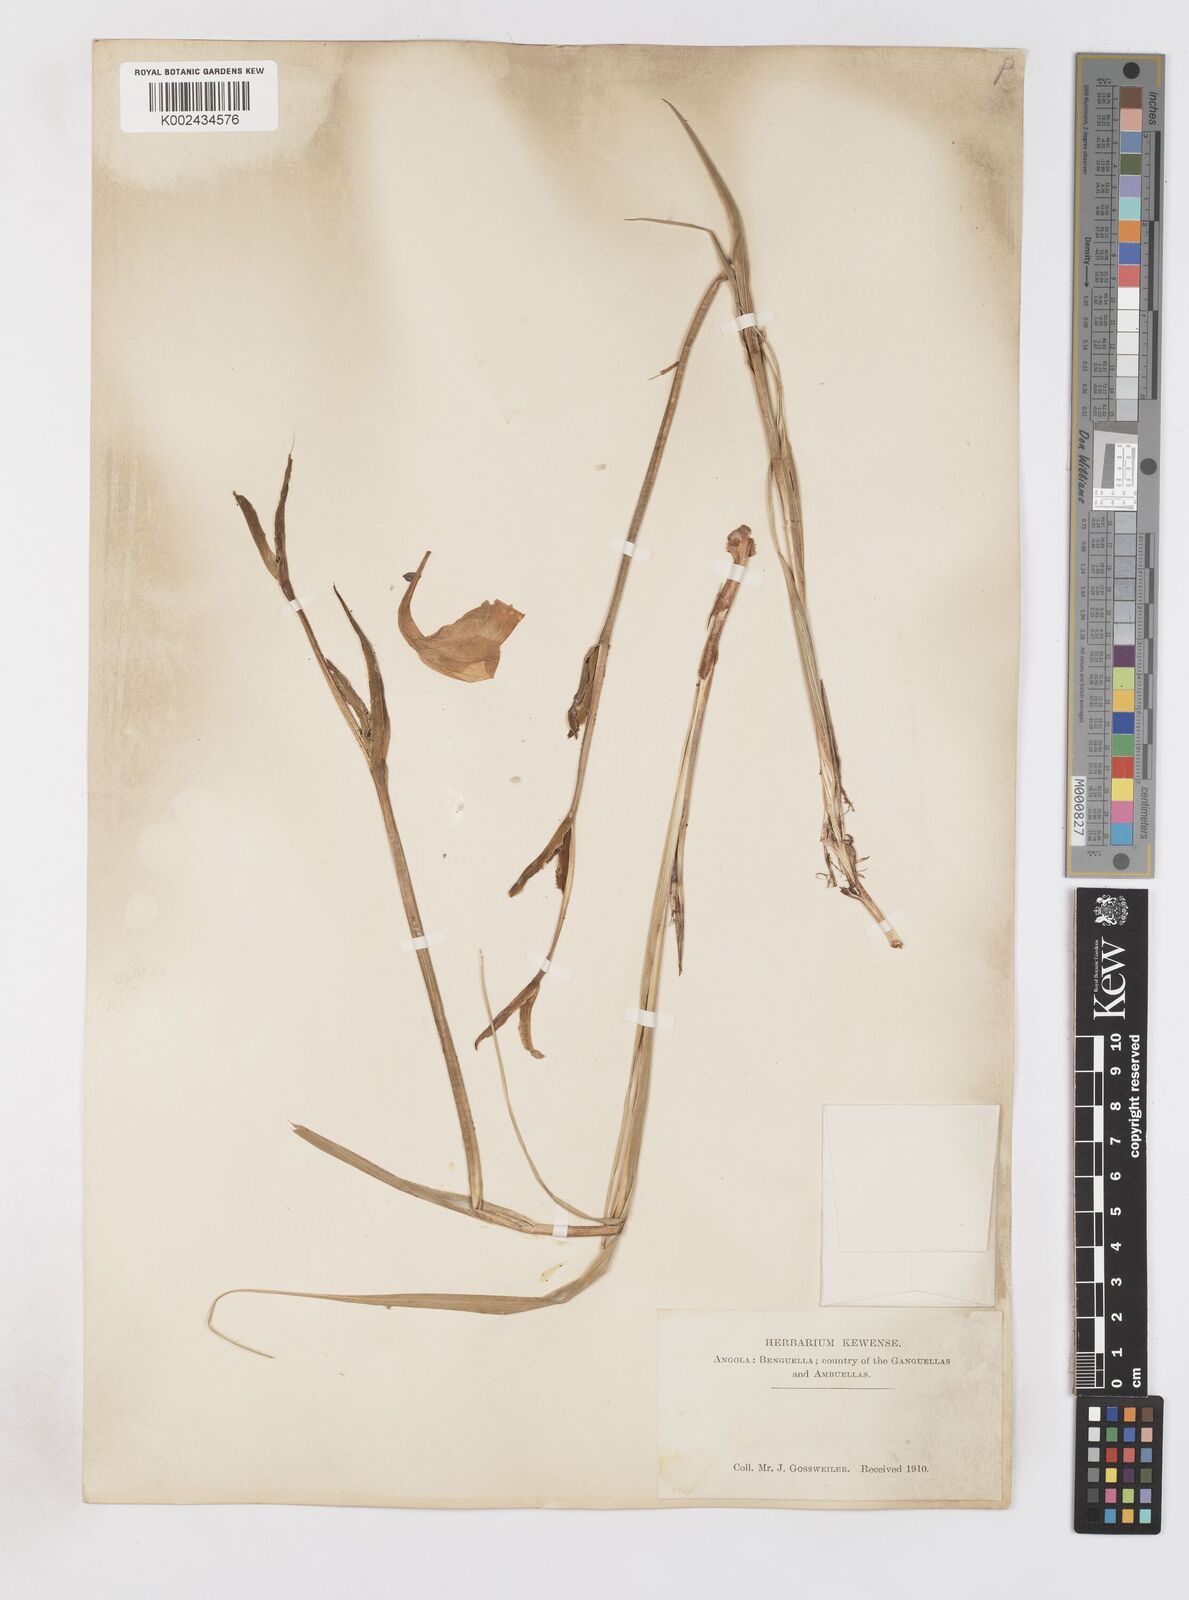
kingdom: Plantae
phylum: Tracheophyta
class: Liliopsida
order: Asparagales
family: Iridaceae
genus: Gladiolus
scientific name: Gladiolus
